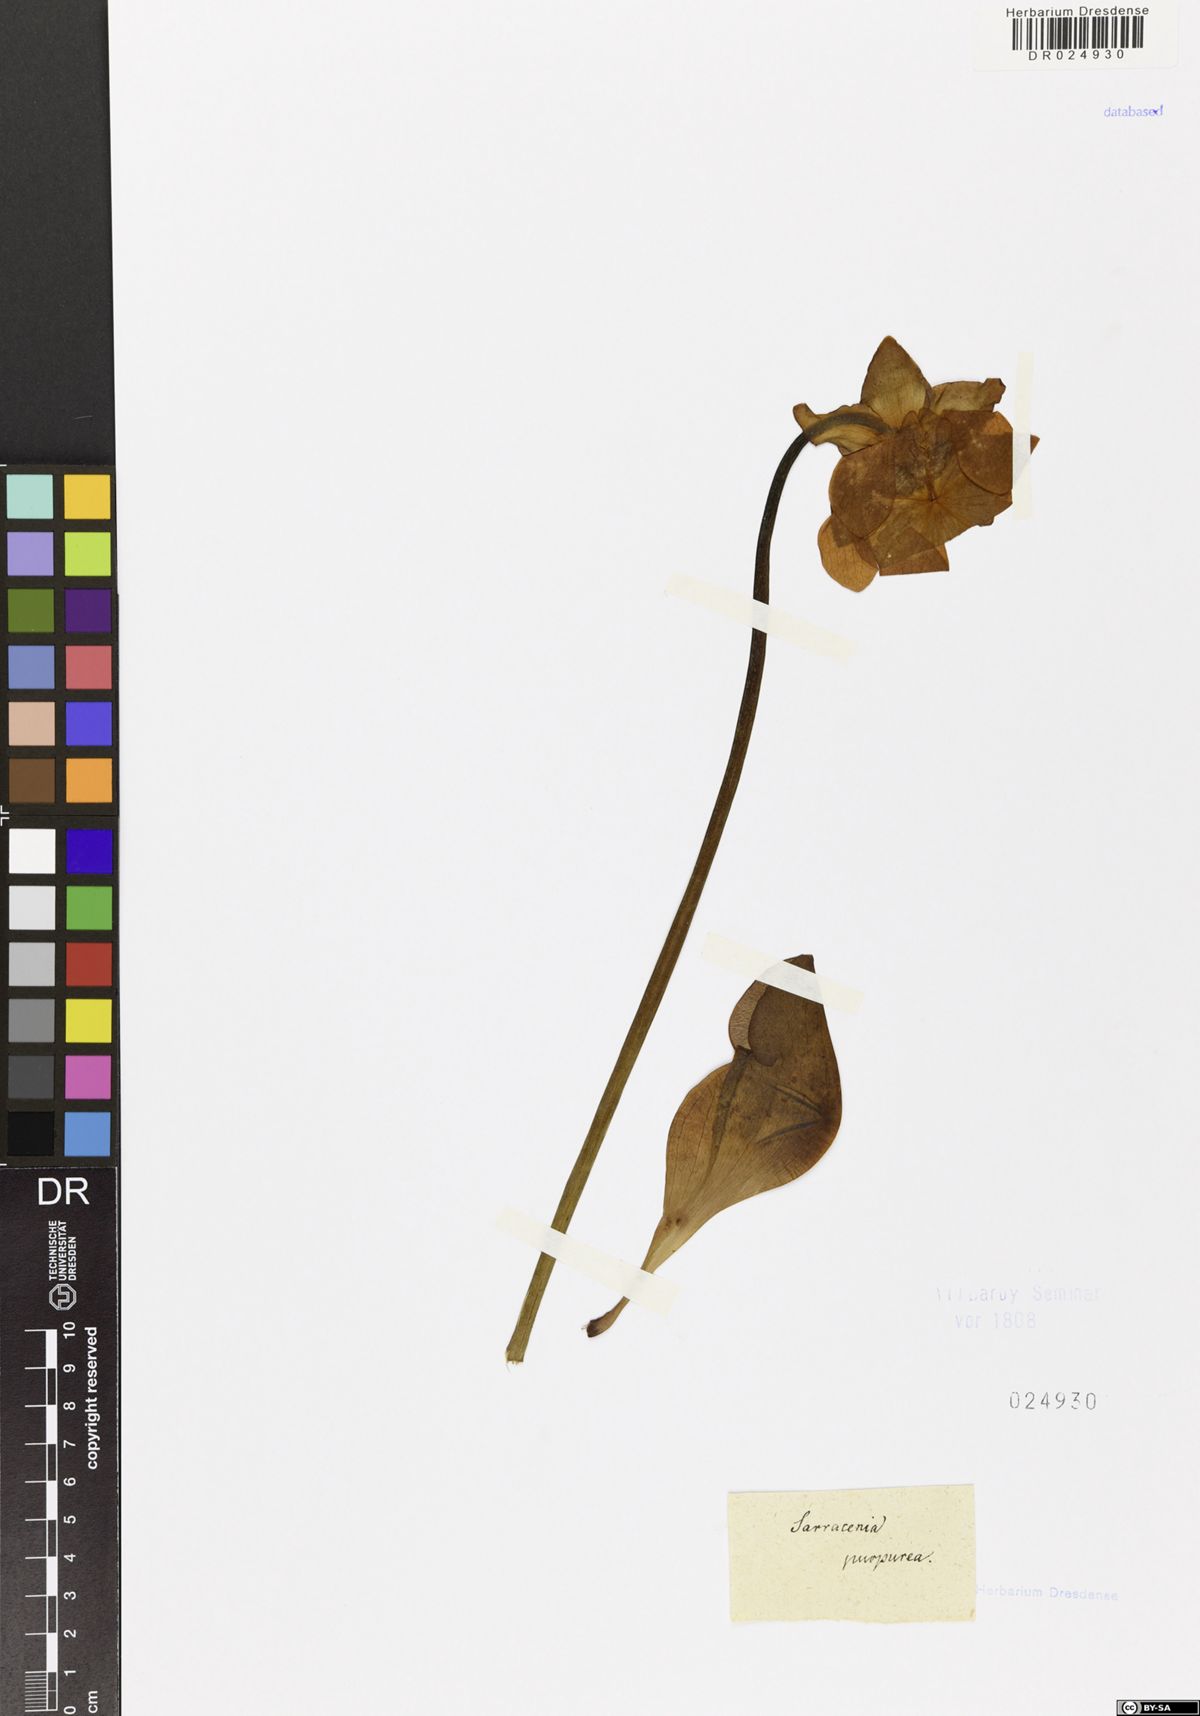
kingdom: Plantae
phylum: Tracheophyta
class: Magnoliopsida
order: Ericales
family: Sarraceniaceae
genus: Sarracenia
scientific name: Sarracenia purpurea
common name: Pitcherplant
